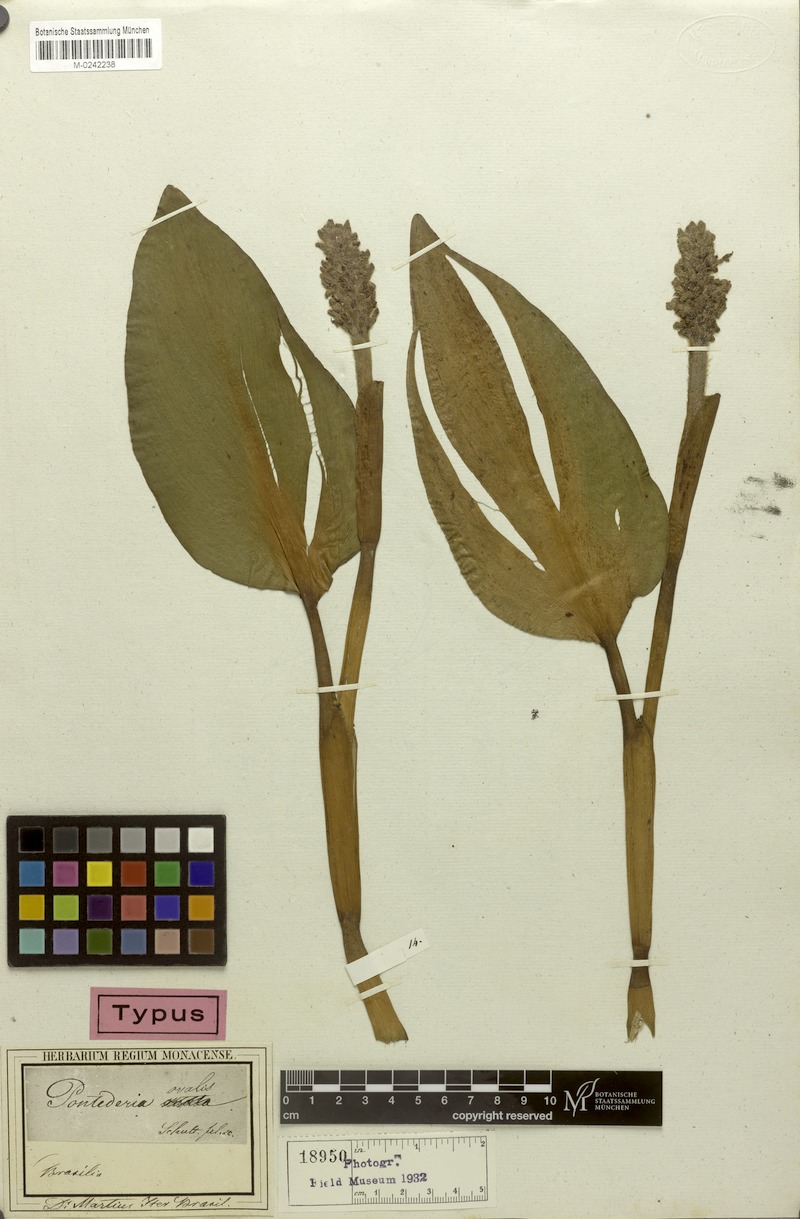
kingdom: Plantae
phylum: Tracheophyta
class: Liliopsida
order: Commelinales
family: Pontederiaceae
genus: Pontederia
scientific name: Pontederia
